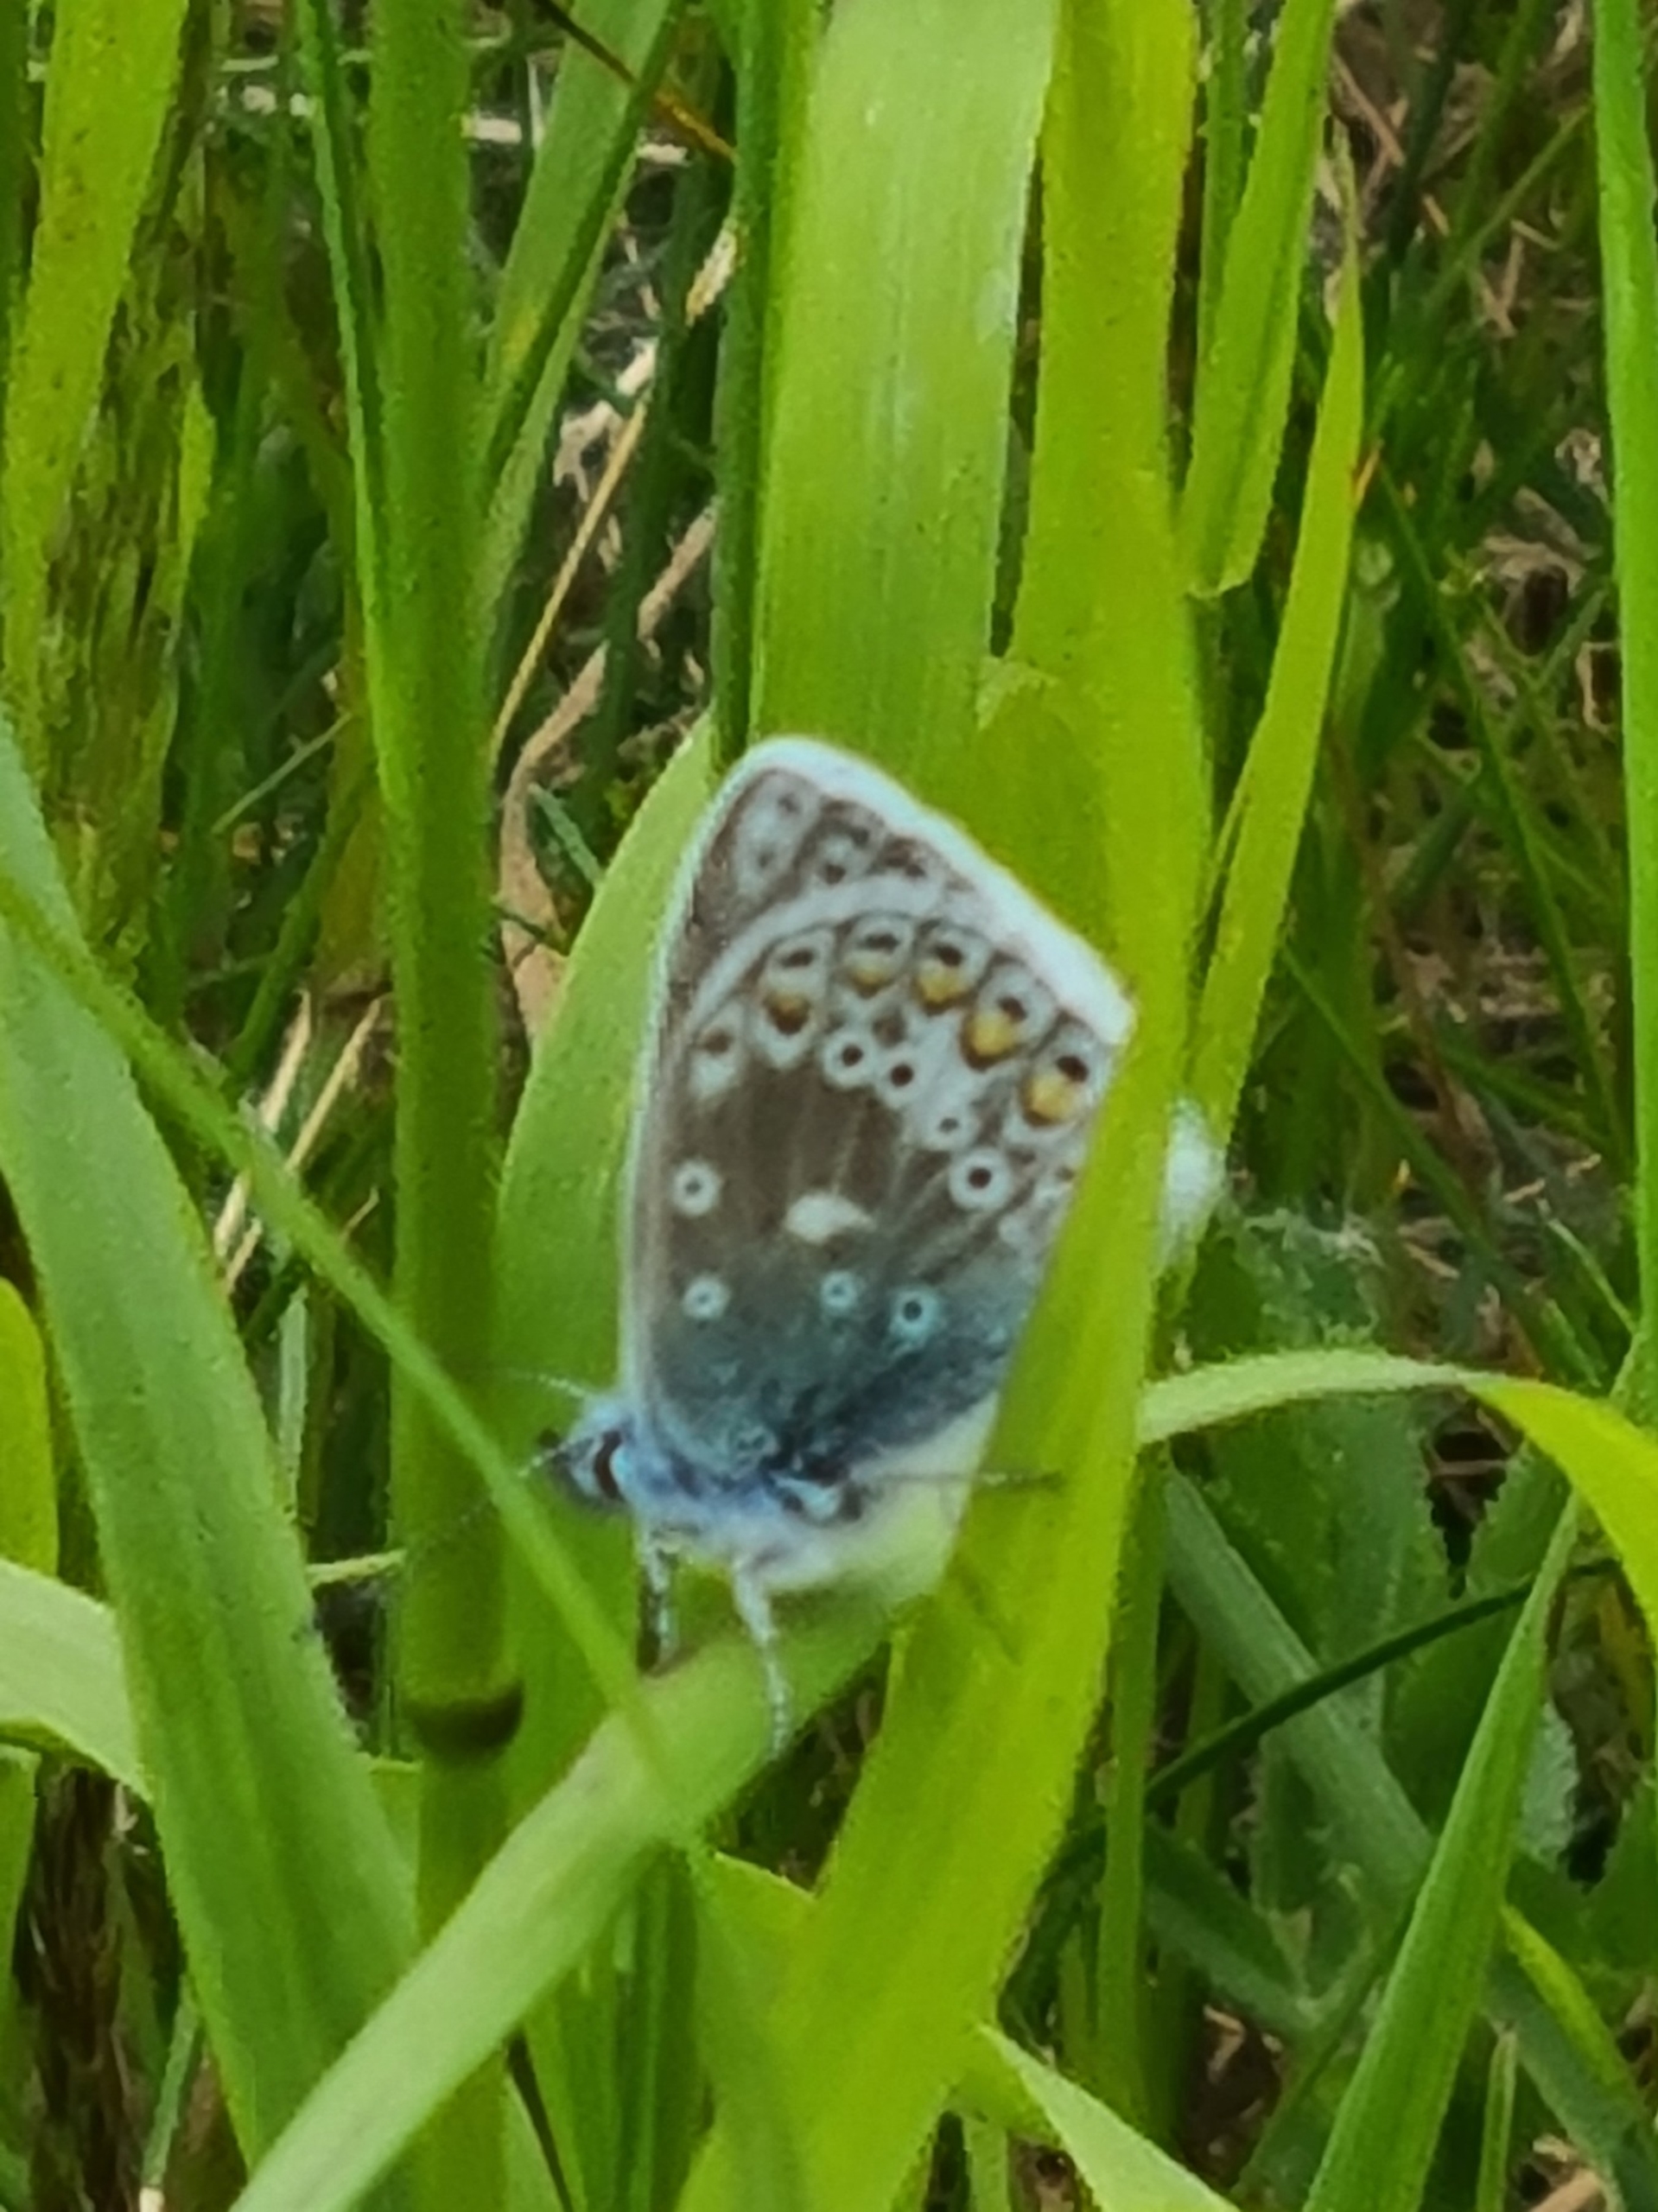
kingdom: Animalia
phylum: Arthropoda
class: Insecta
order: Lepidoptera
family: Lycaenidae
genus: Polyommatus
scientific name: Polyommatus icarus
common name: Almindelig blåfugl
